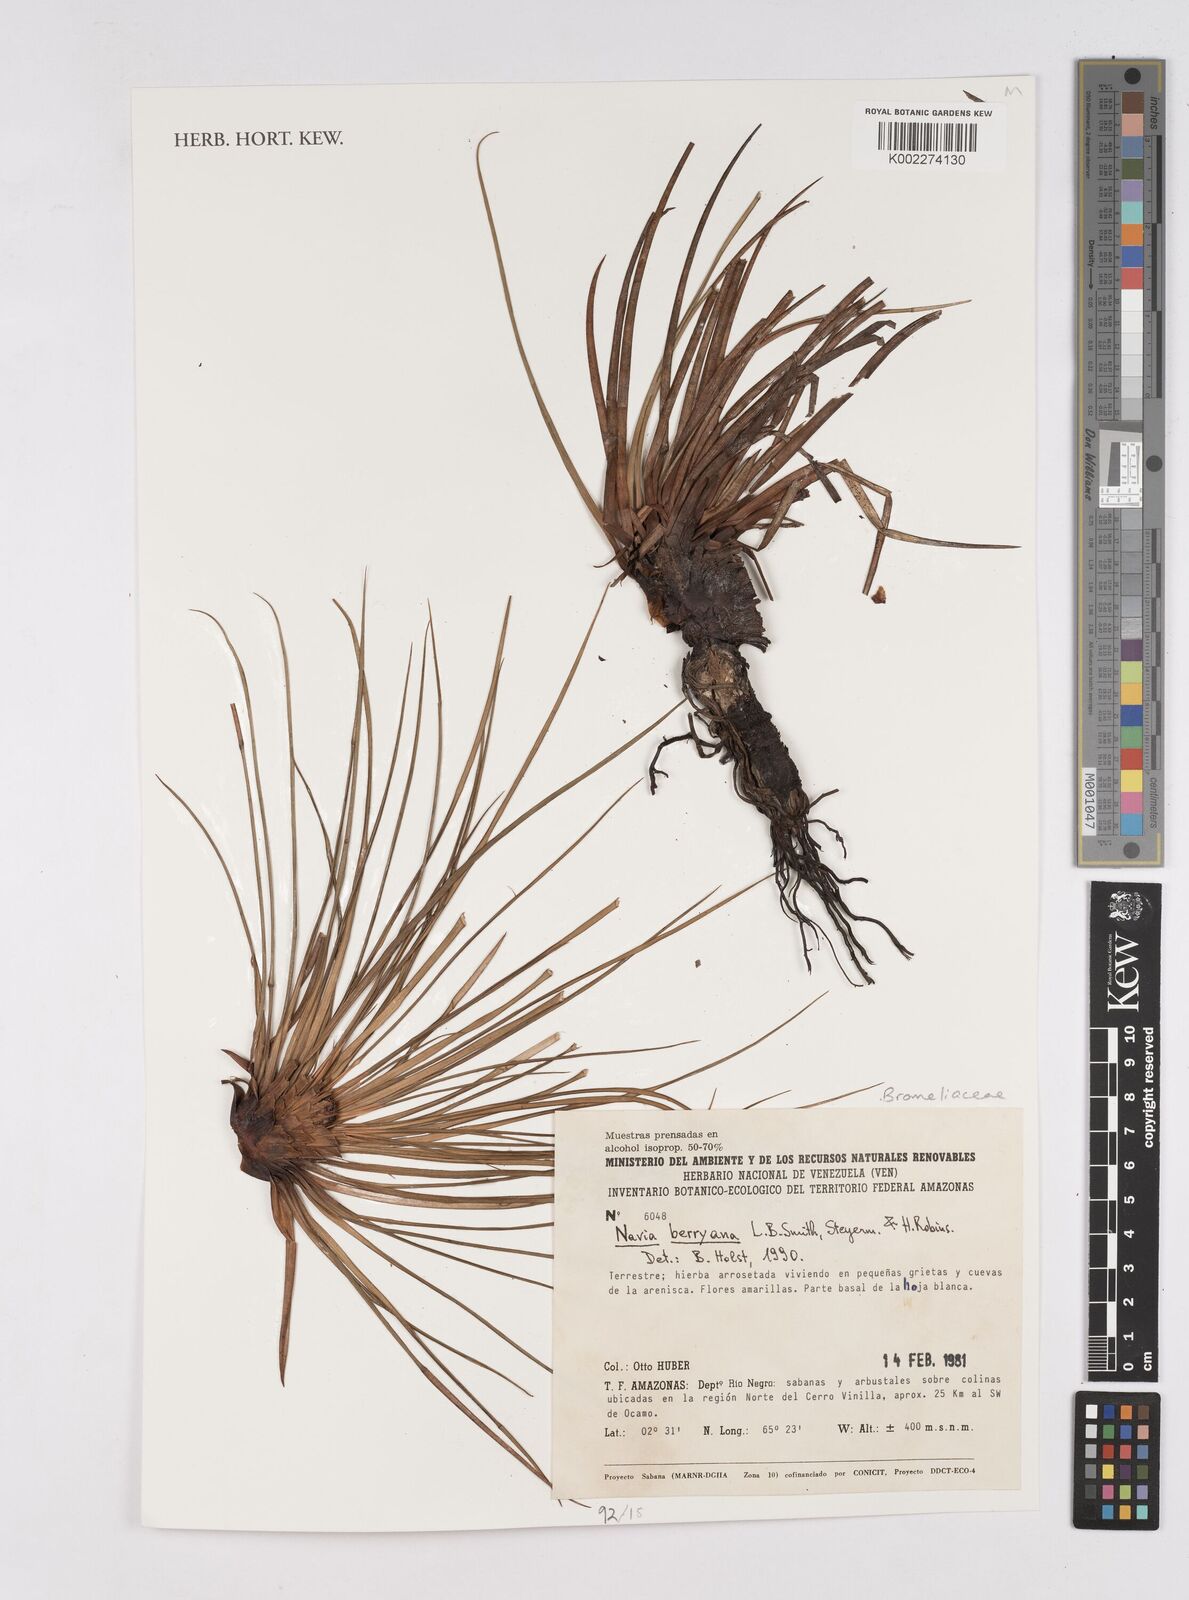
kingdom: Plantae
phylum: Tracheophyta
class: Liliopsida
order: Poales
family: Bromeliaceae
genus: Navia
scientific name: Navia berryana
